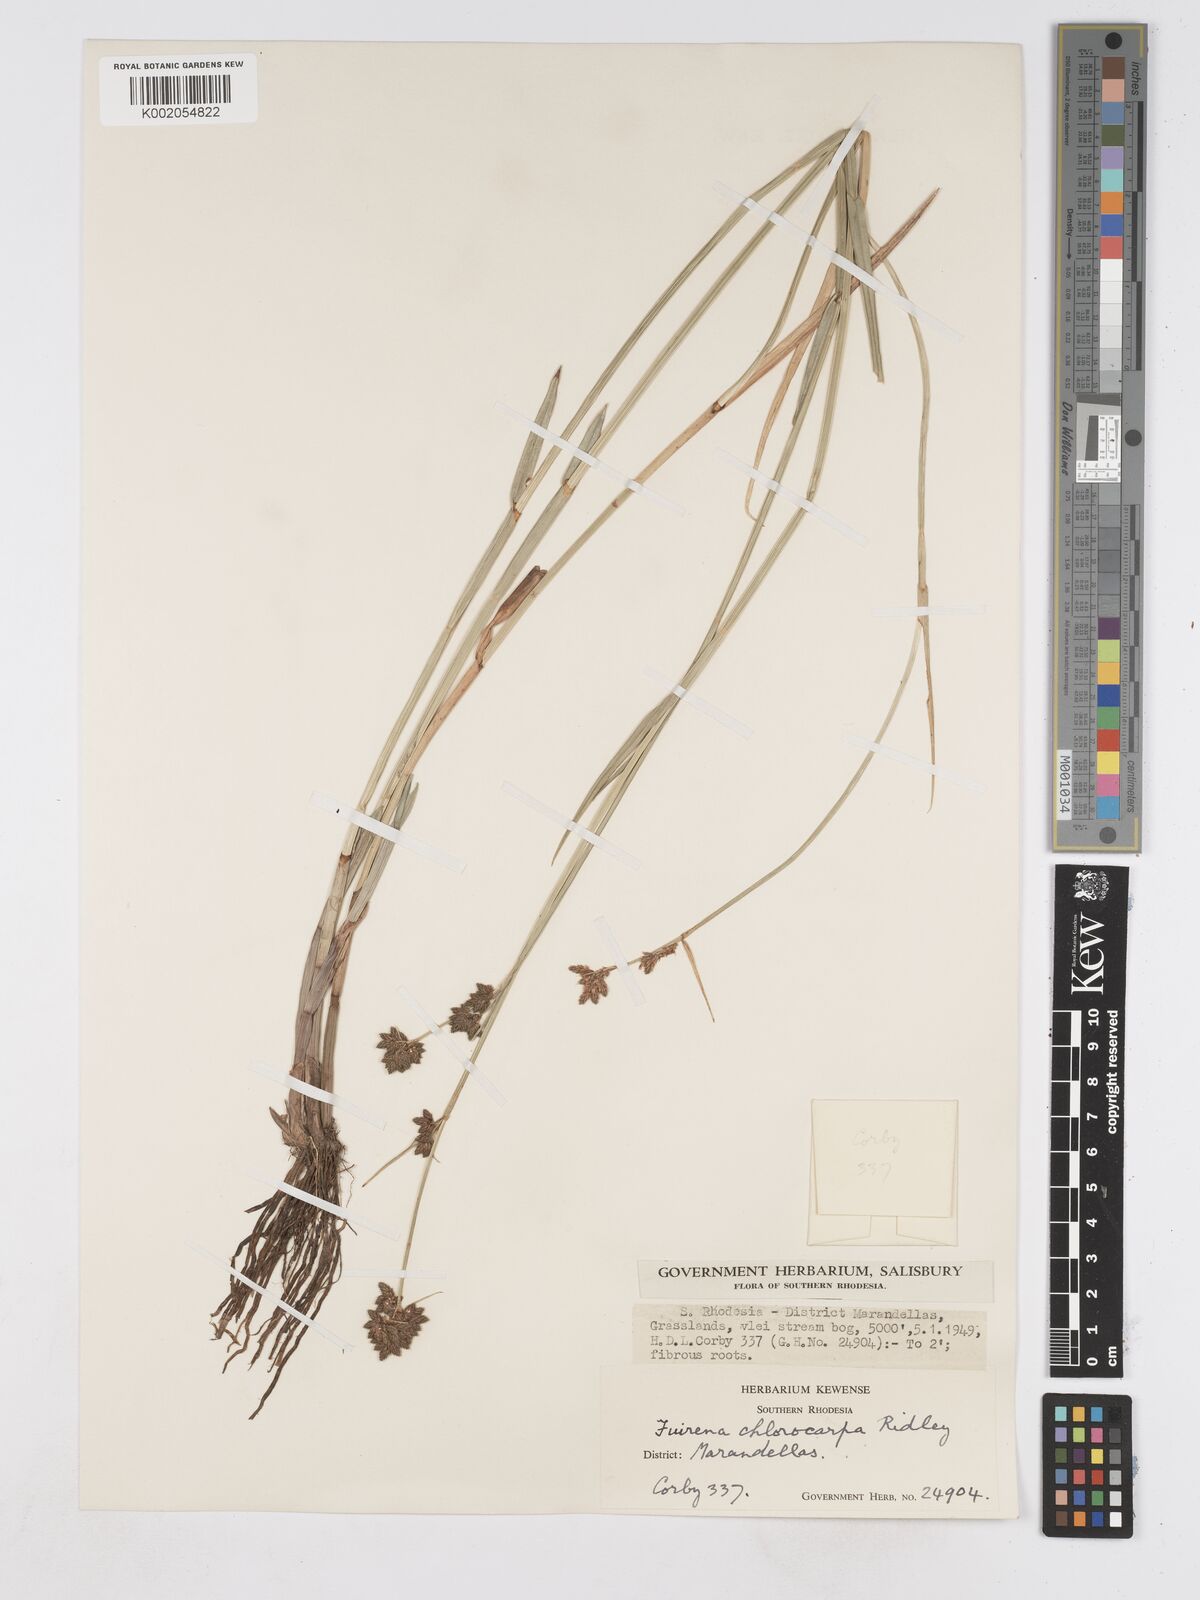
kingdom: Plantae
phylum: Tracheophyta
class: Liliopsida
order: Poales
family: Cyperaceae
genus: Fuirena
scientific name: Fuirena stricta
